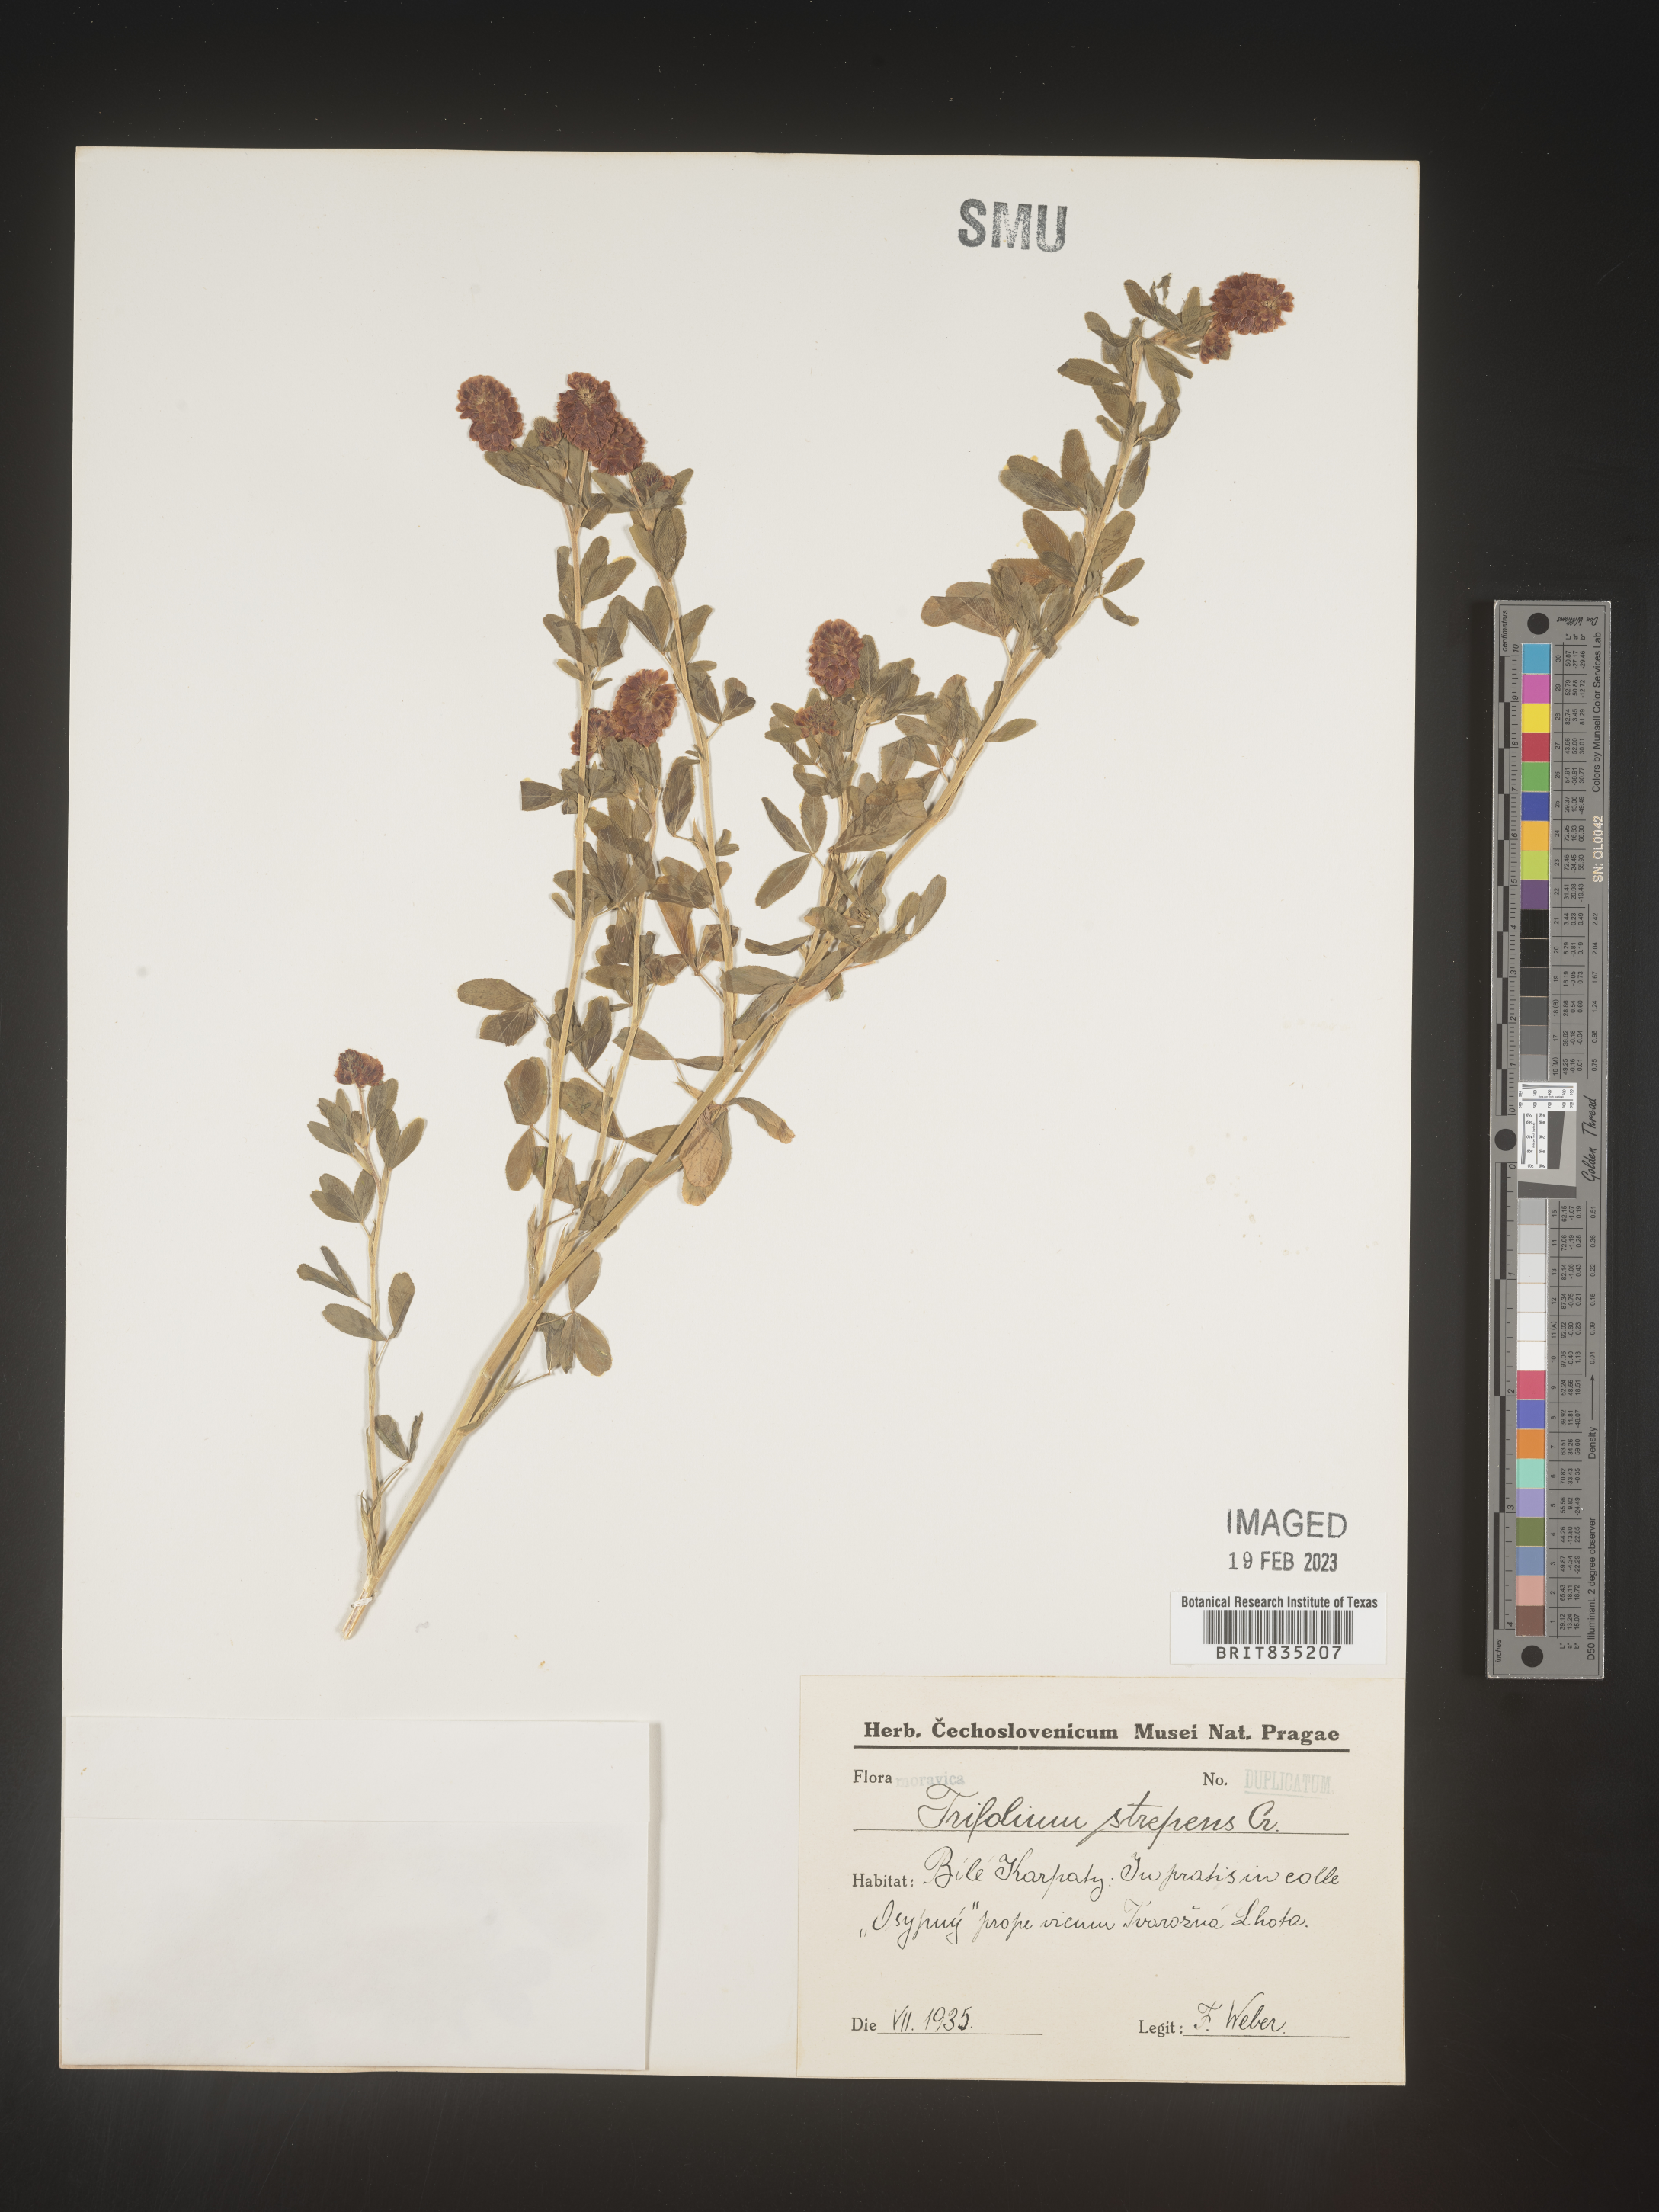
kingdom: Plantae
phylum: Tracheophyta
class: Magnoliopsida
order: Fabales
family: Fabaceae
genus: Trifolium
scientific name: Trifolium
